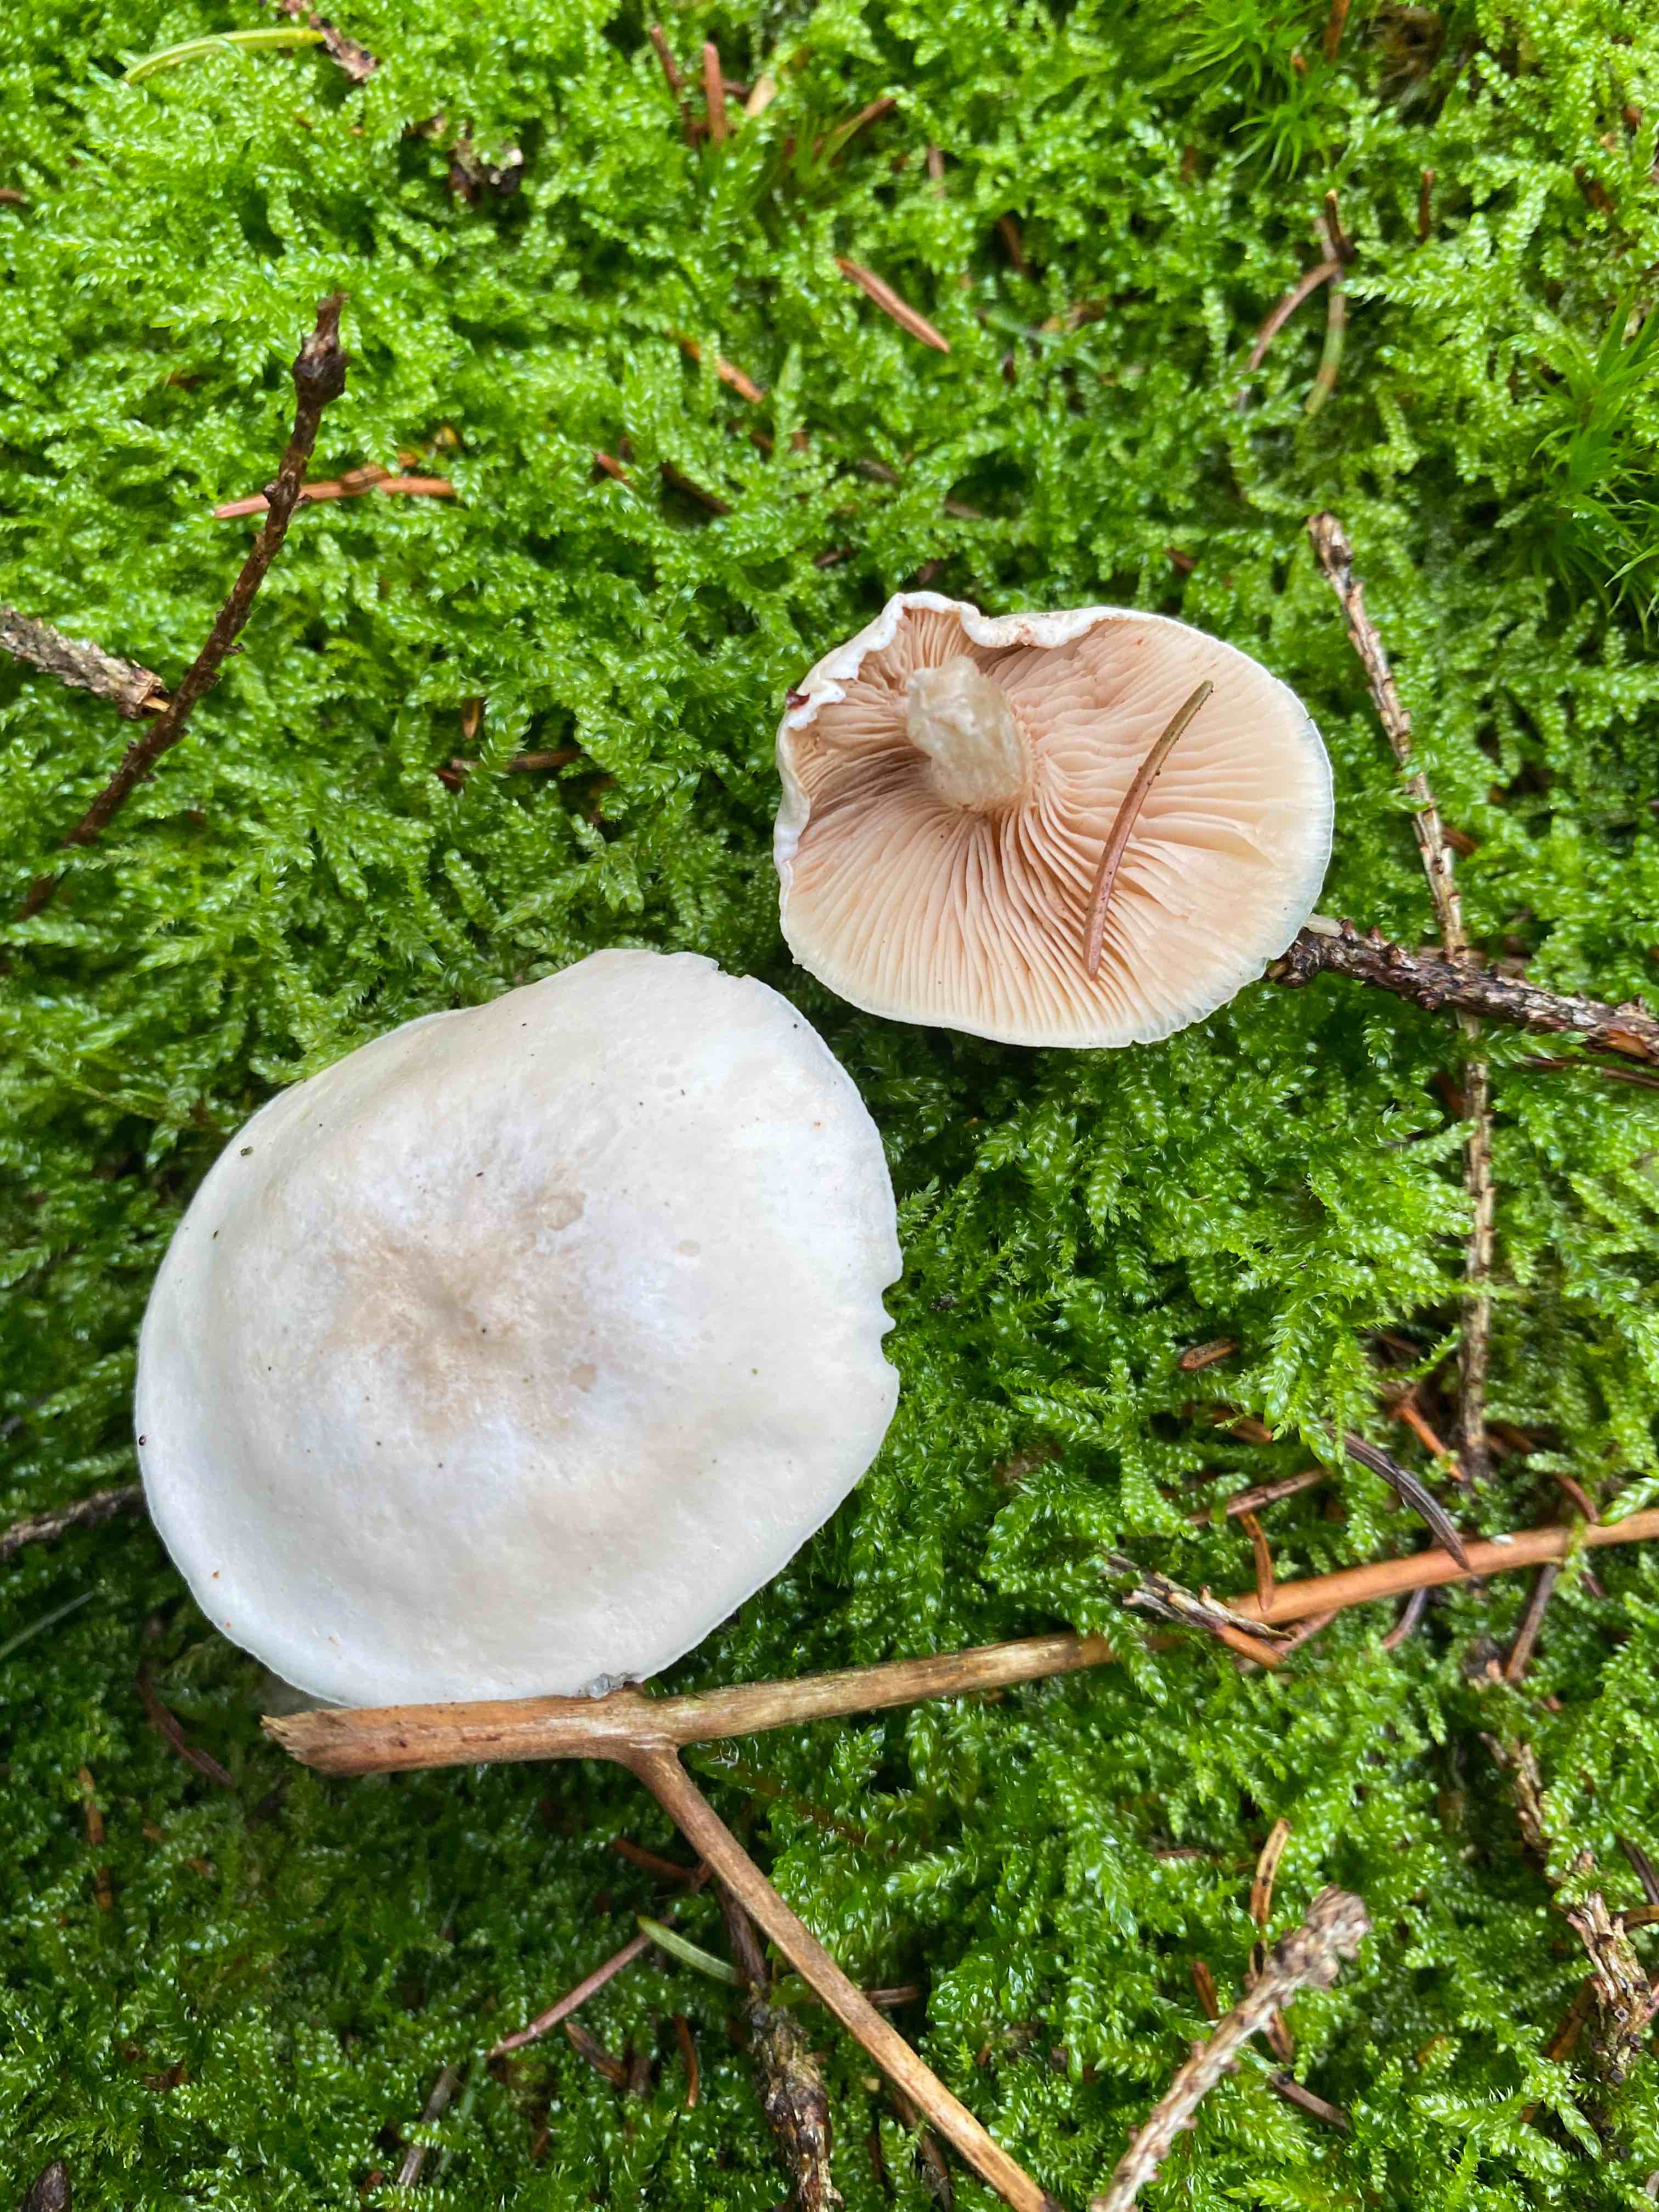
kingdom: Fungi
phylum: Basidiomycota
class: Agaricomycetes
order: Agaricales
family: Entolomataceae
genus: Clitopilus
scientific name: Clitopilus prunulus
